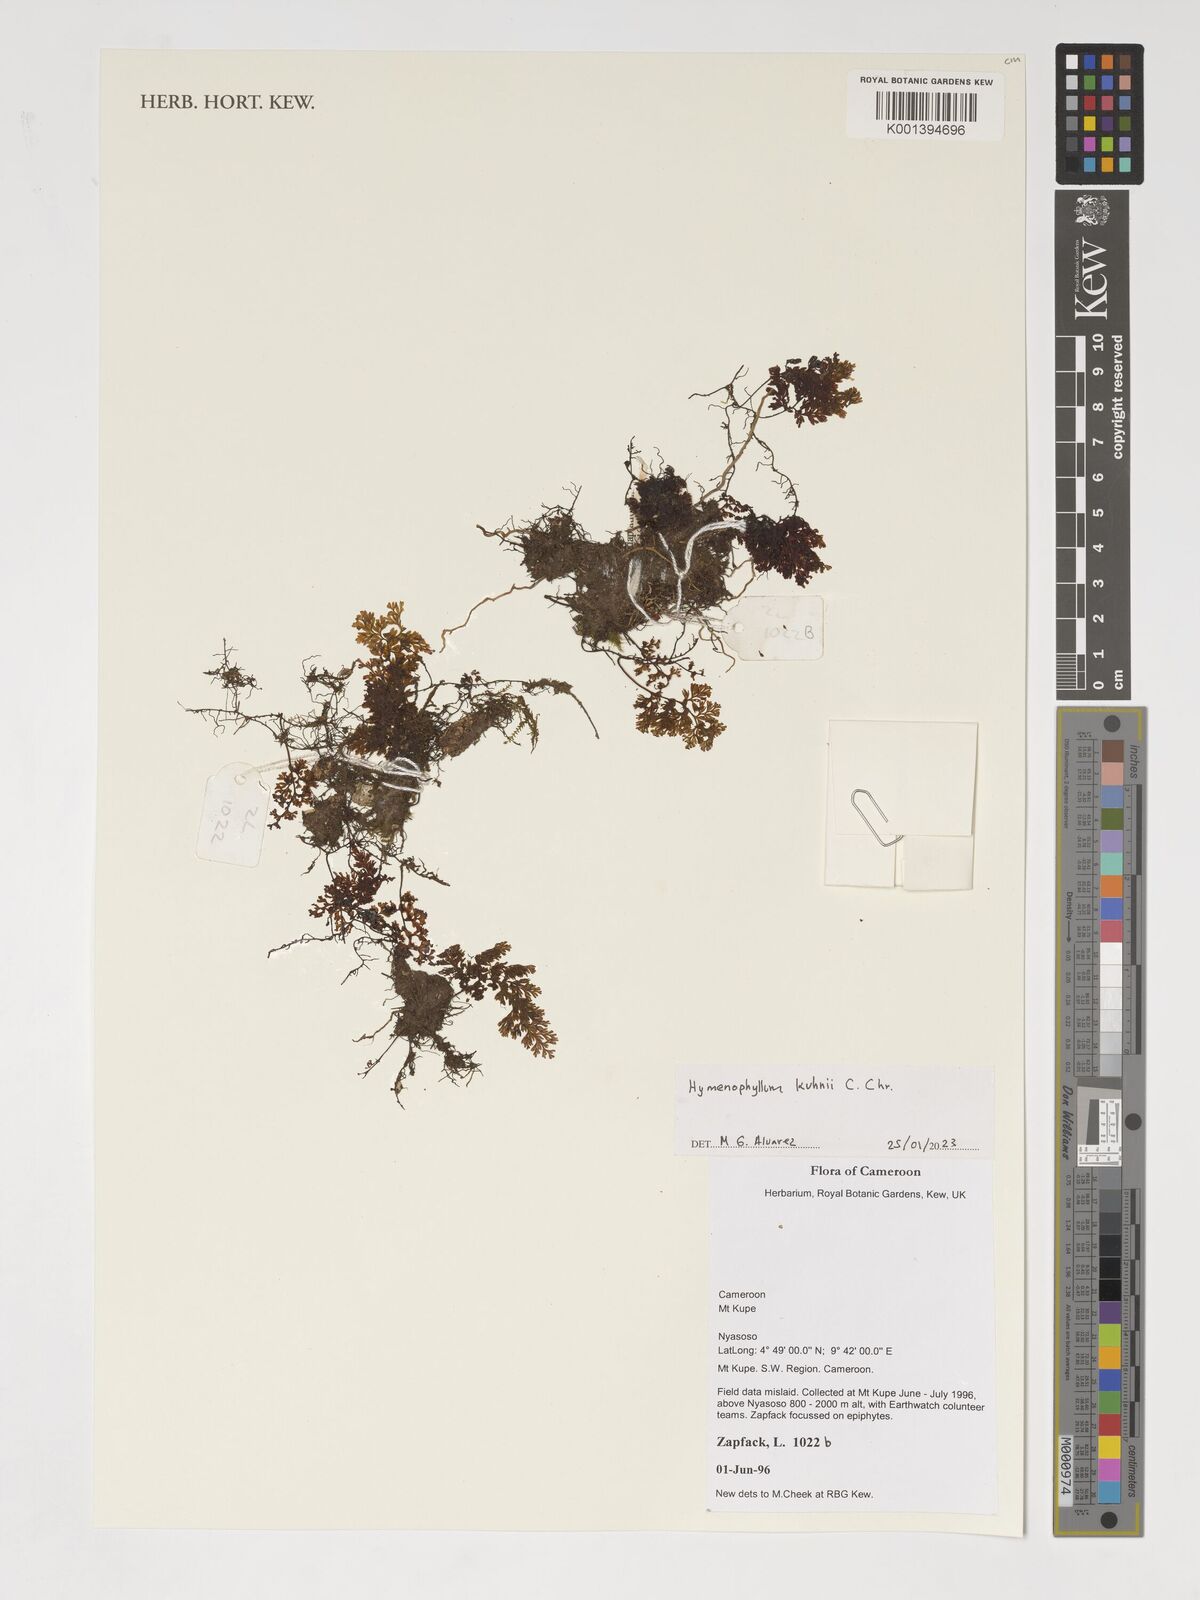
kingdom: Plantae
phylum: Tracheophyta
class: Polypodiopsida
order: Hymenophyllales
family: Hymenophyllaceae
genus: Hymenophyllum
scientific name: Hymenophyllum kuhnii
